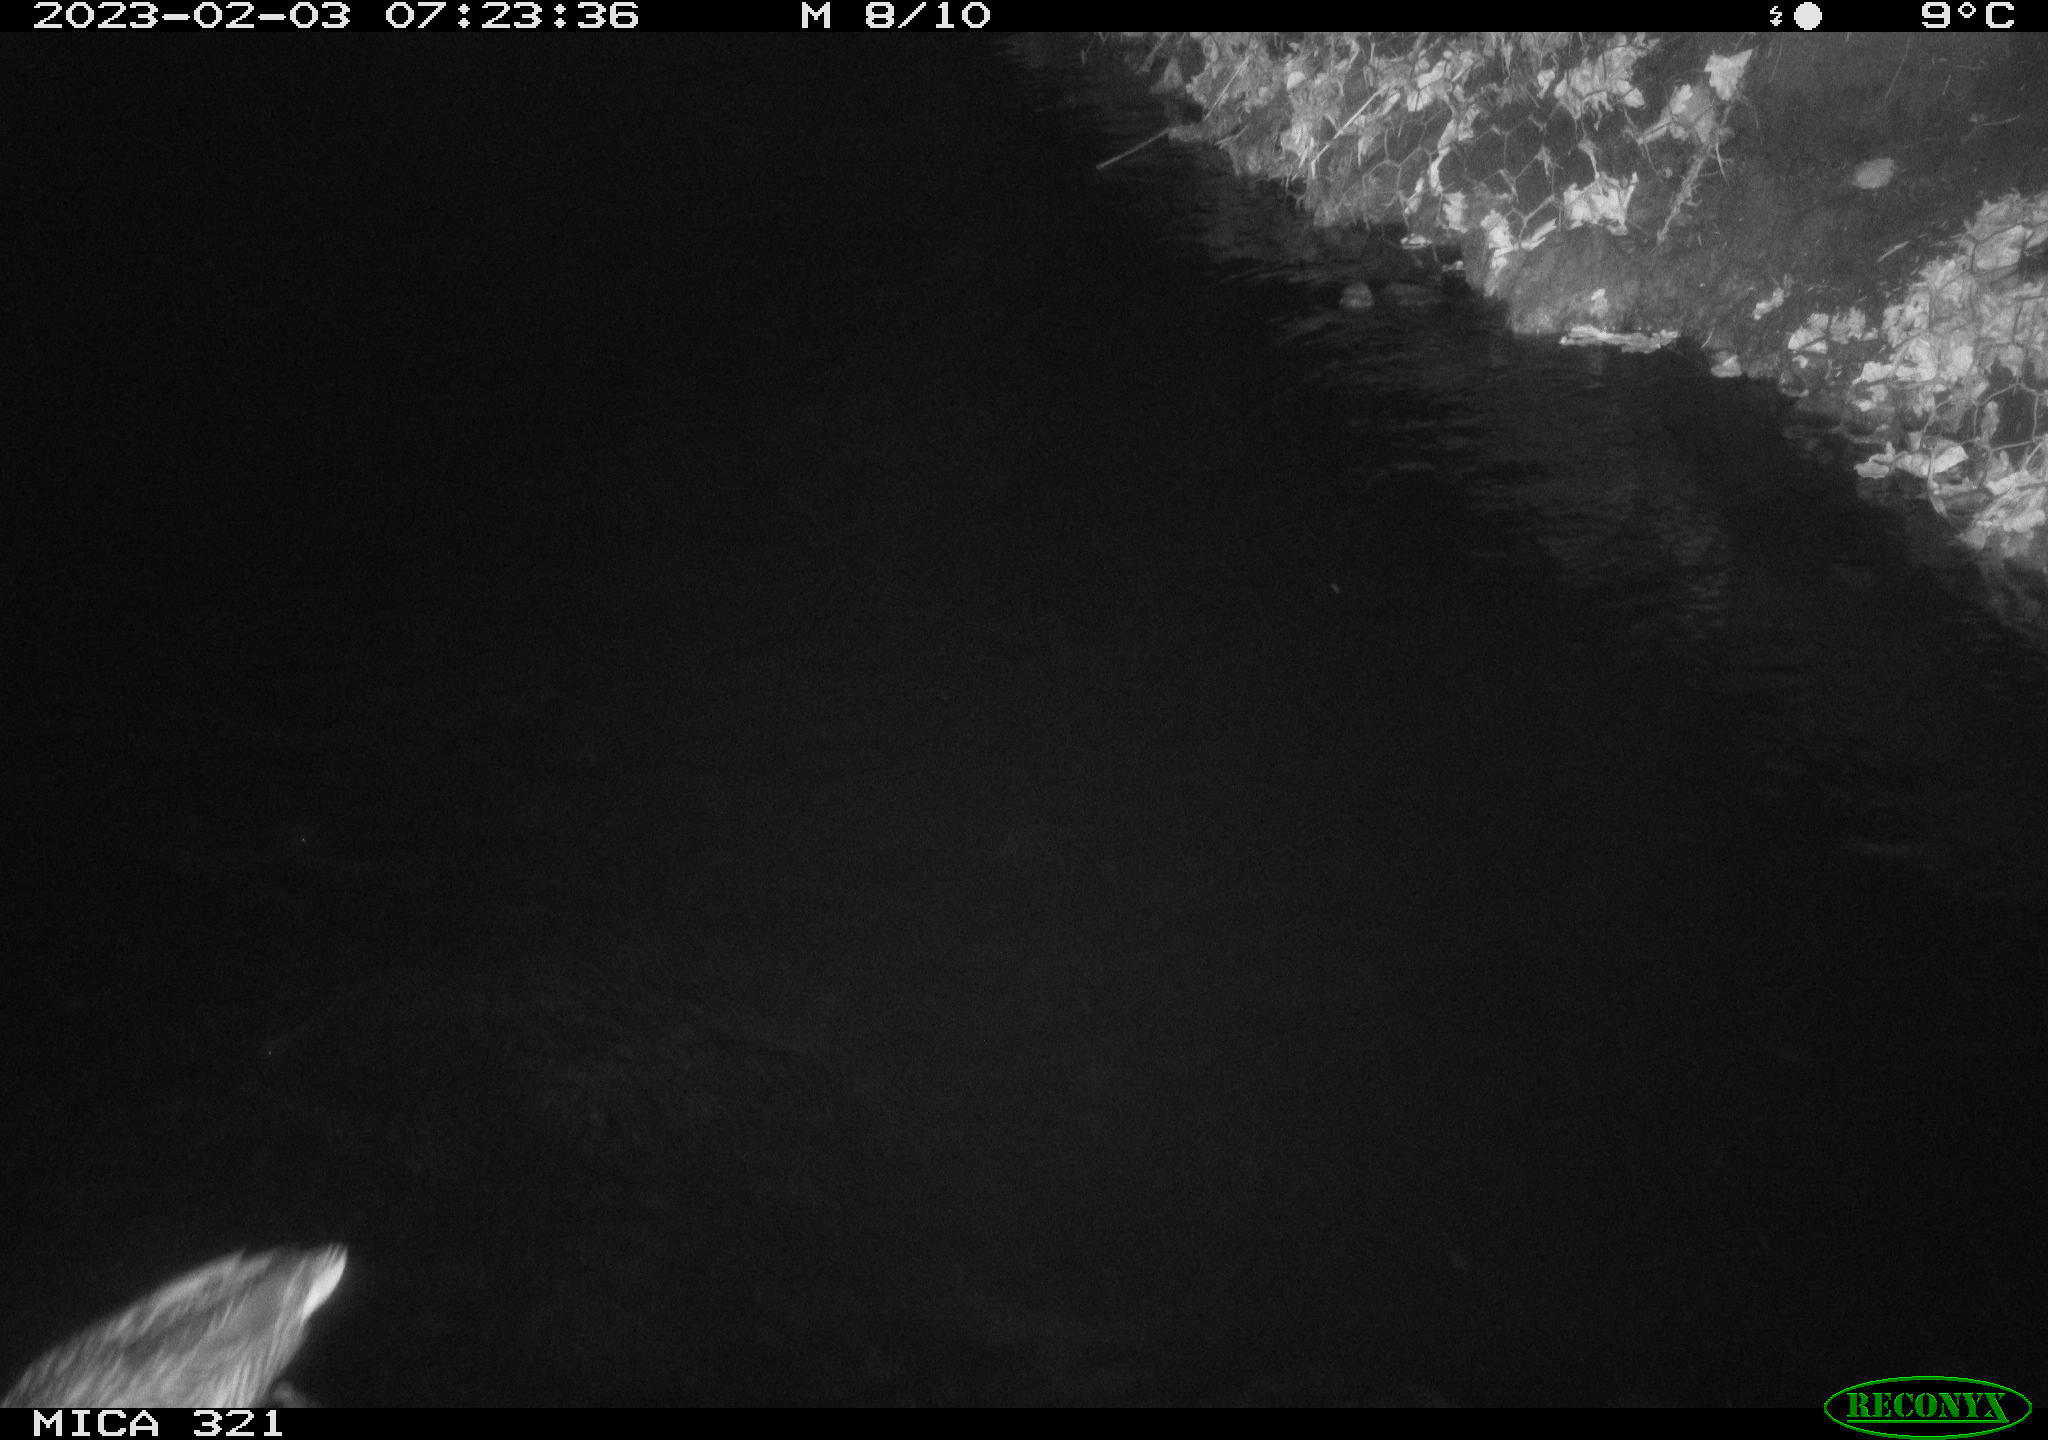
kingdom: Animalia
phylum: Chordata
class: Aves
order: Anseriformes
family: Anatidae
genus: Anas
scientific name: Anas
